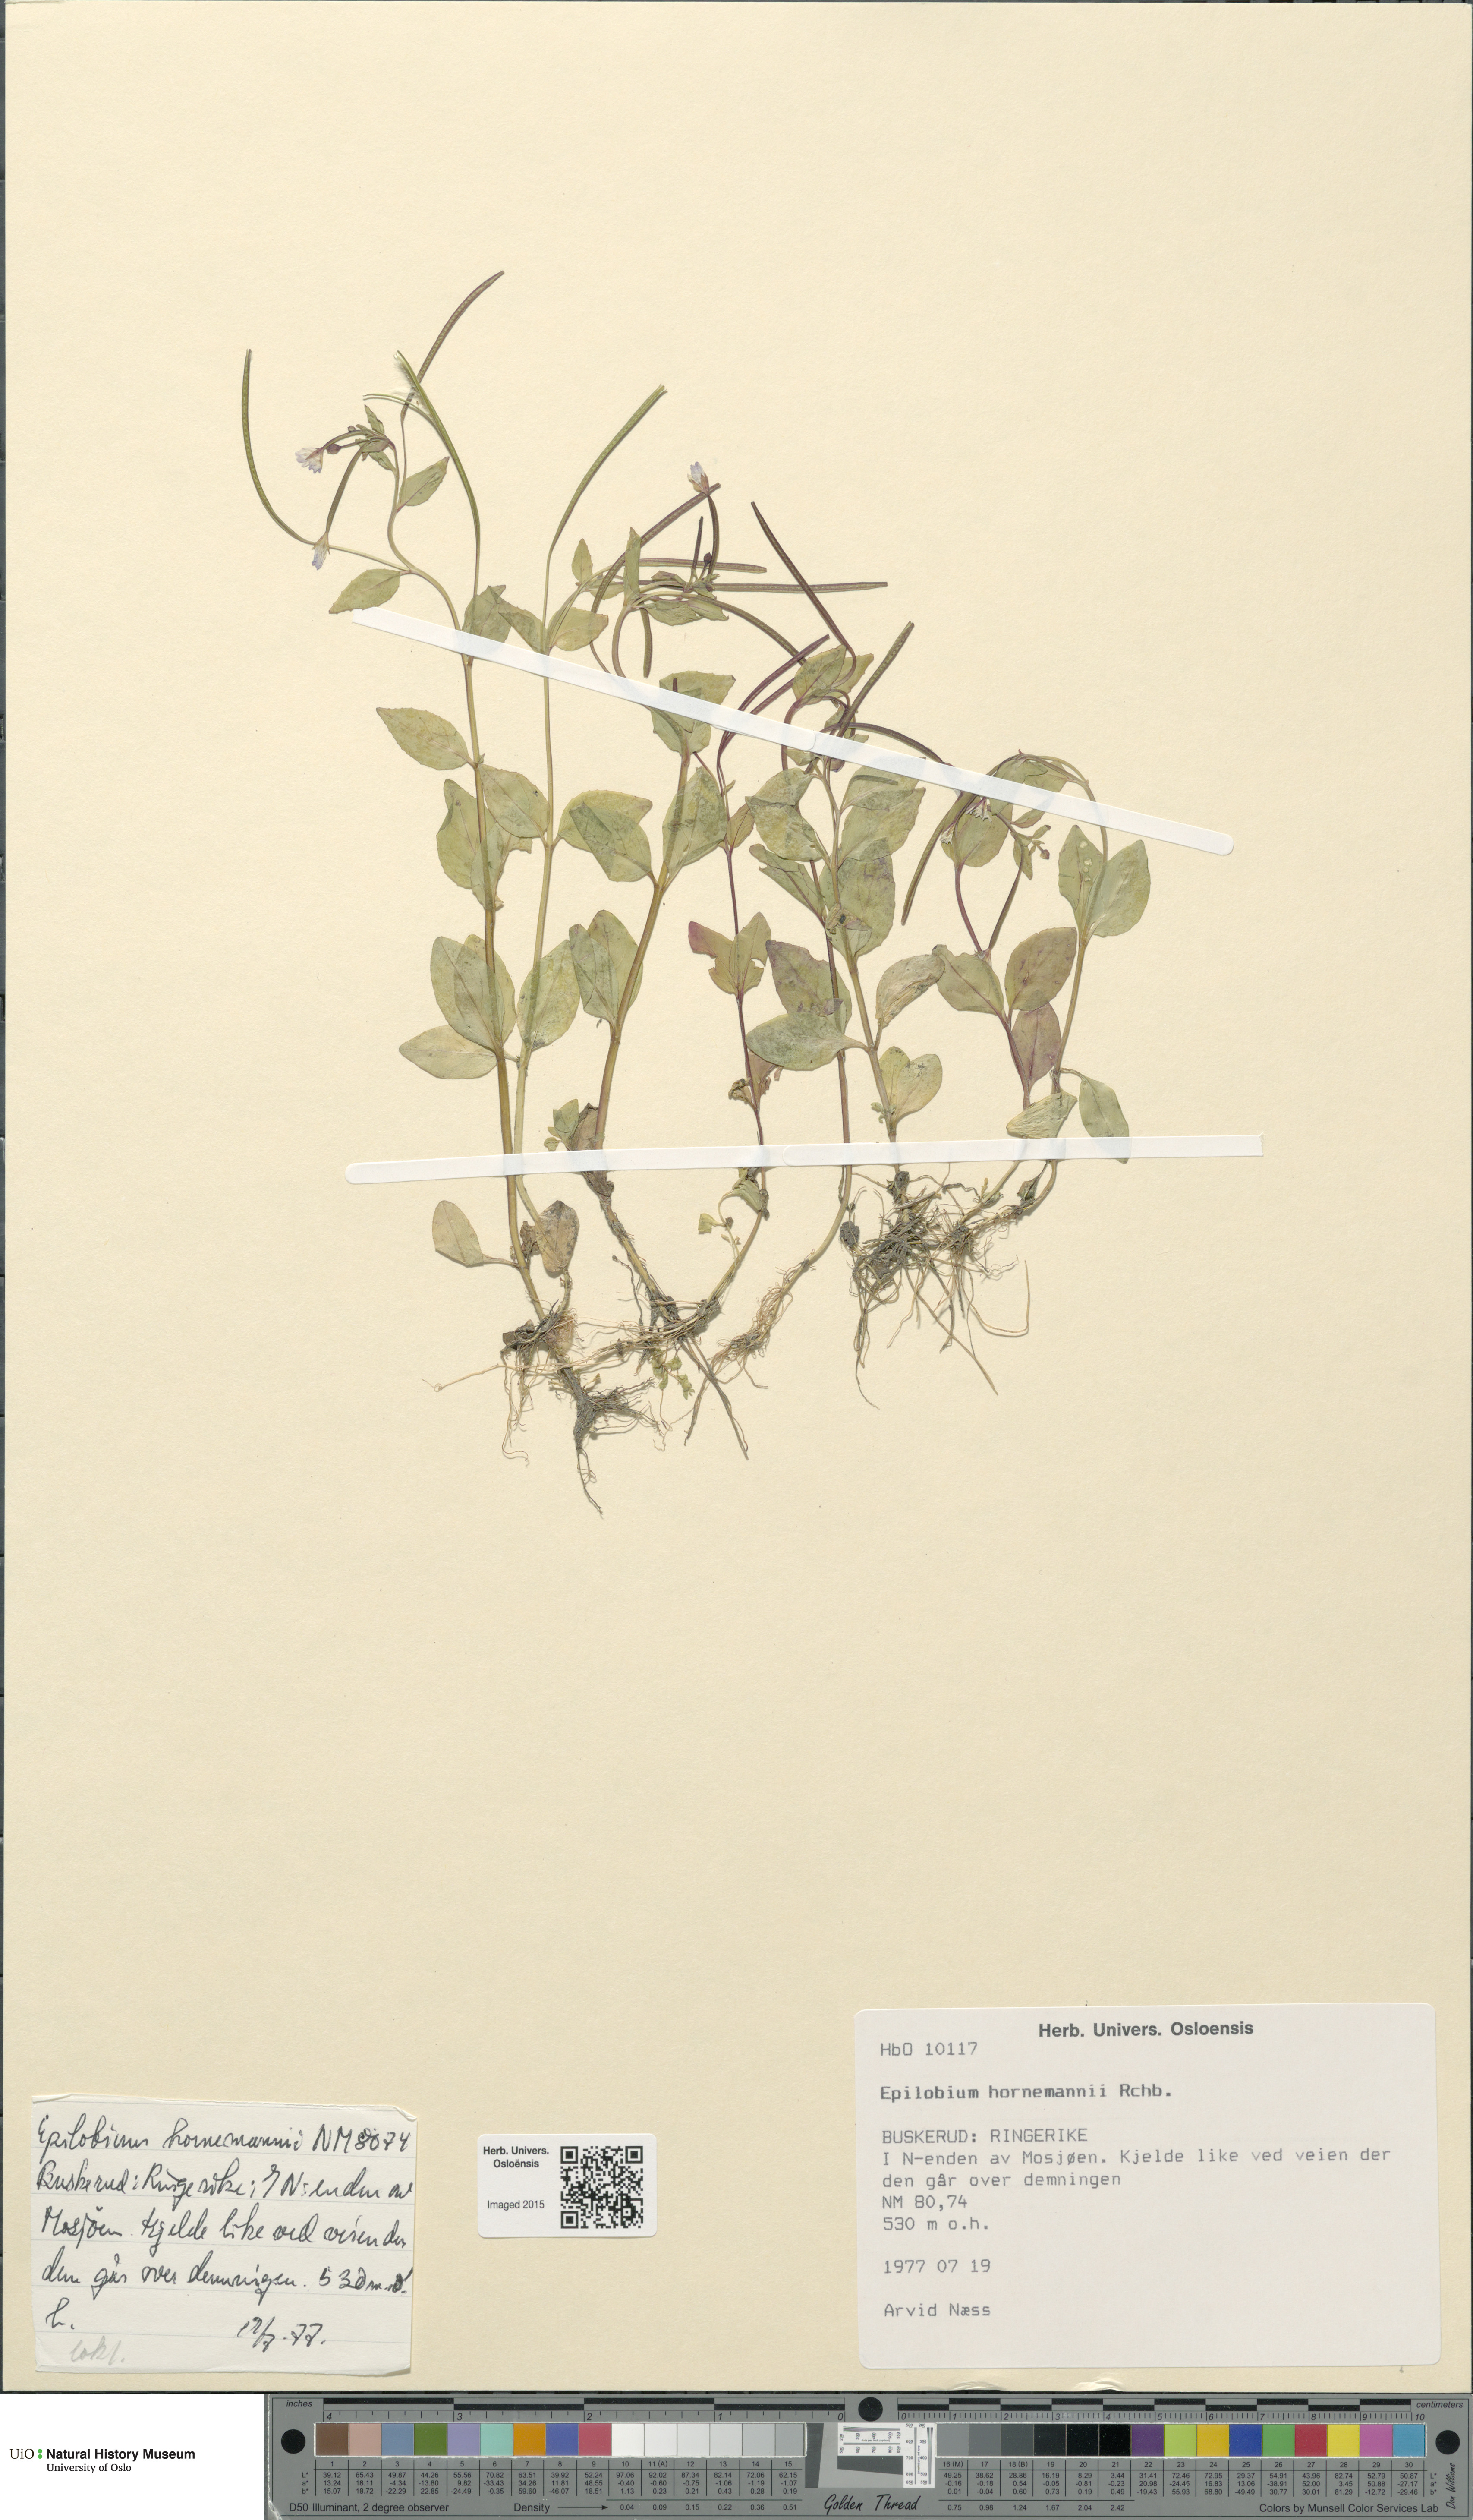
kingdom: Plantae
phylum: Tracheophyta
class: Magnoliopsida
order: Myrtales
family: Onagraceae
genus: Epilobium
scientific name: Epilobium hornemannii
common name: Hornemann's willowherb
